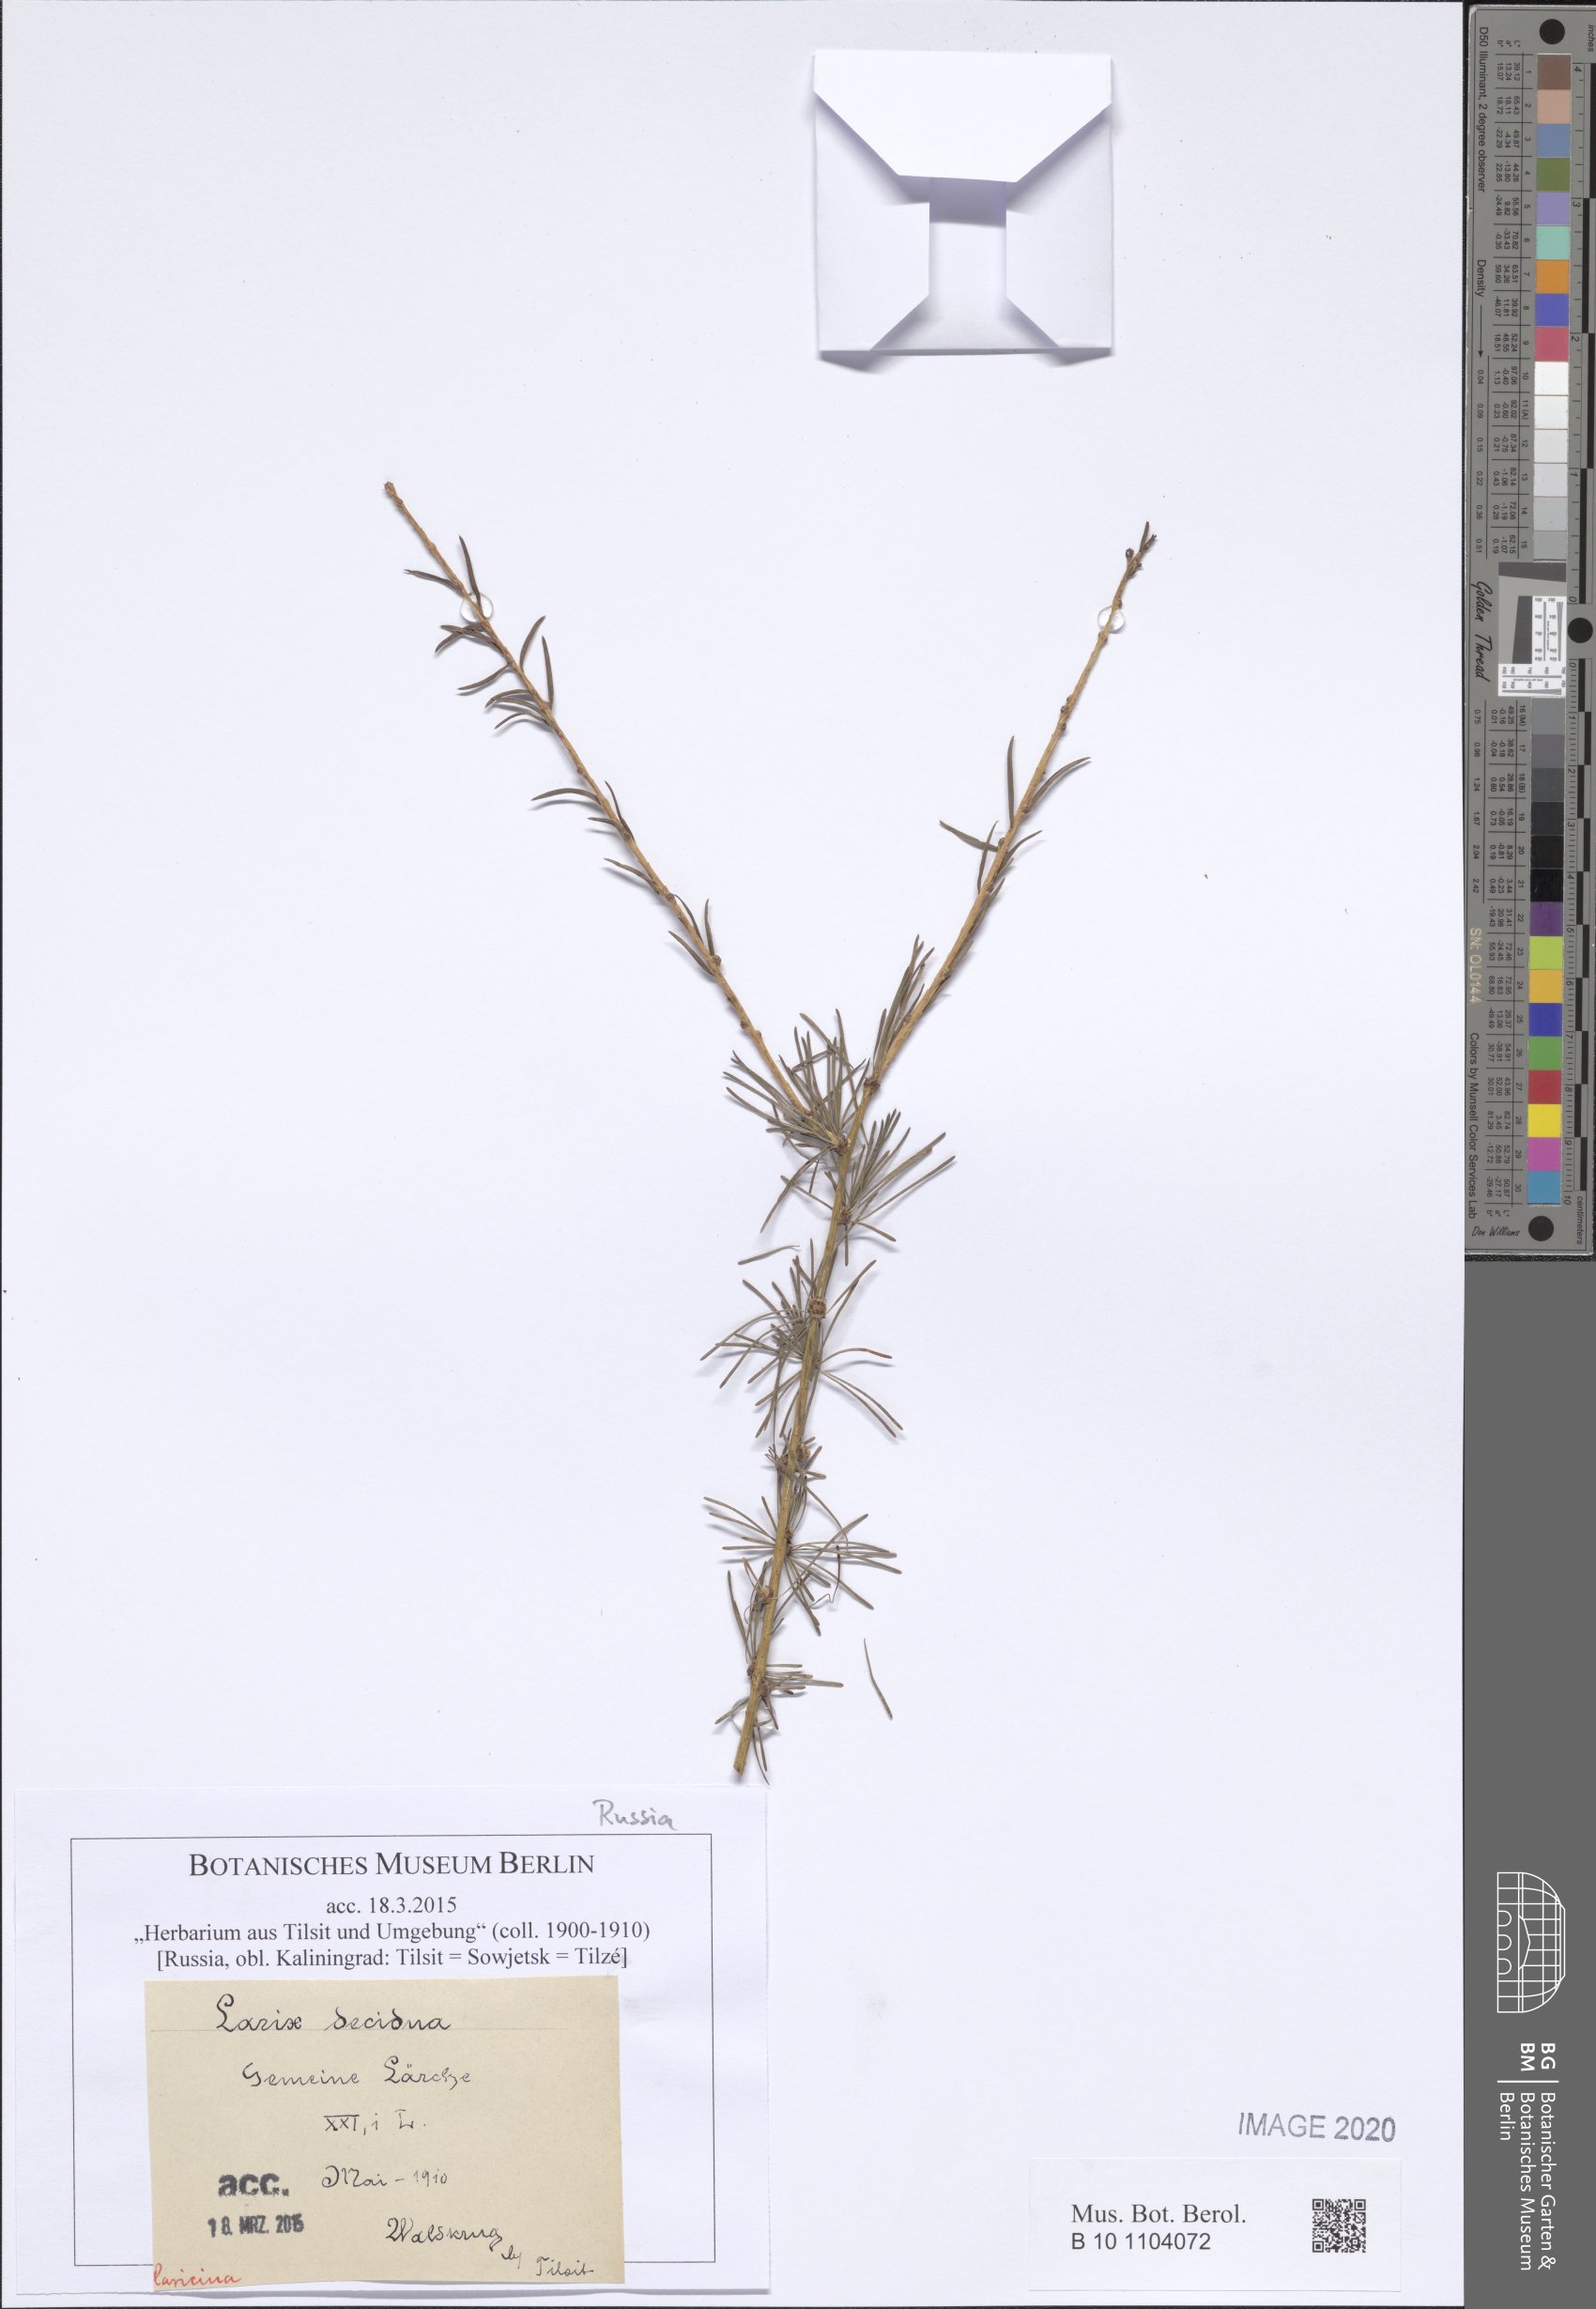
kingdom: Plantae
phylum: Tracheophyta
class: Pinopsida
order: Pinales
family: Pinaceae
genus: Larix
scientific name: Larix decidua
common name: European larch
